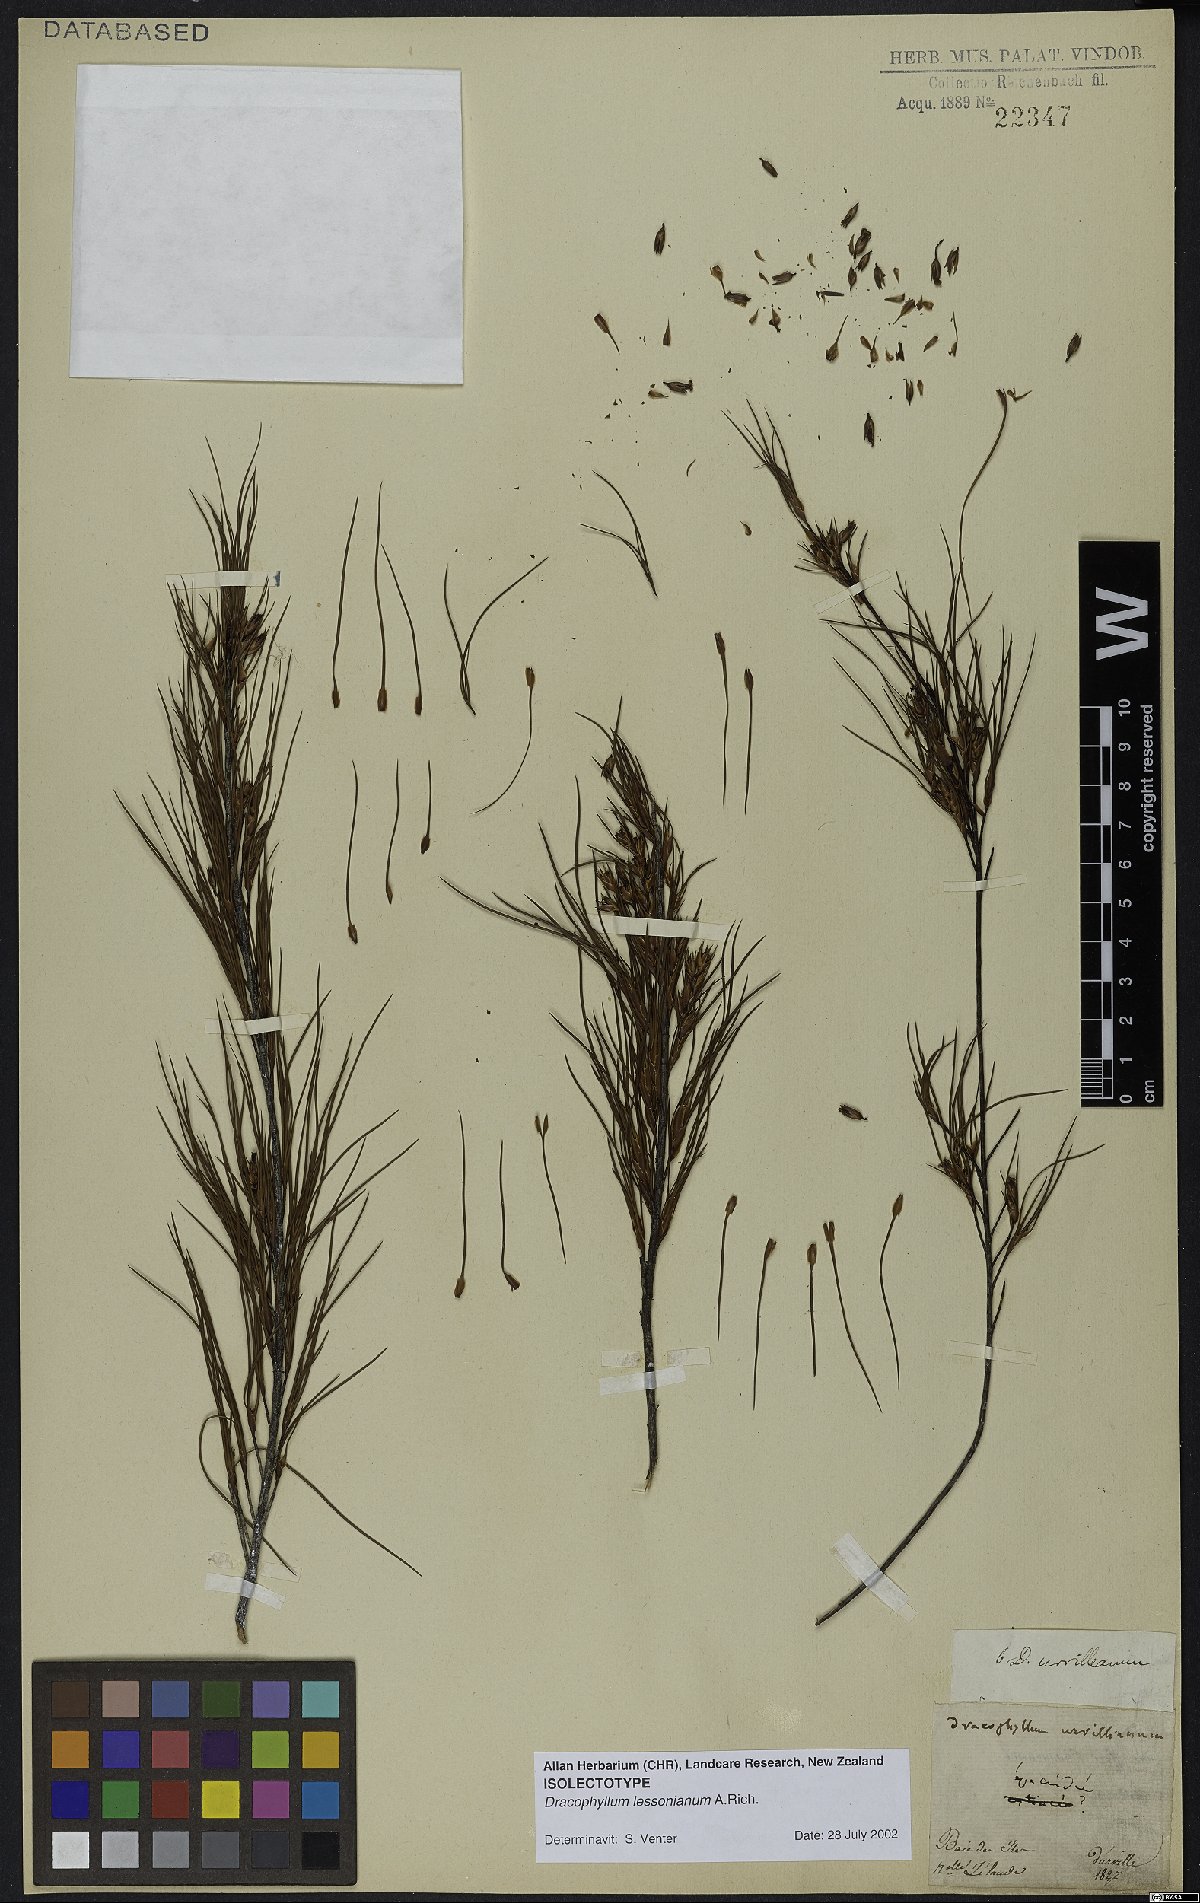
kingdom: Plantae
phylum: Tracheophyta
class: Magnoliopsida
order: Ericales
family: Ericaceae
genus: Dracophyllum
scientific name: Dracophyllum lessonianum
